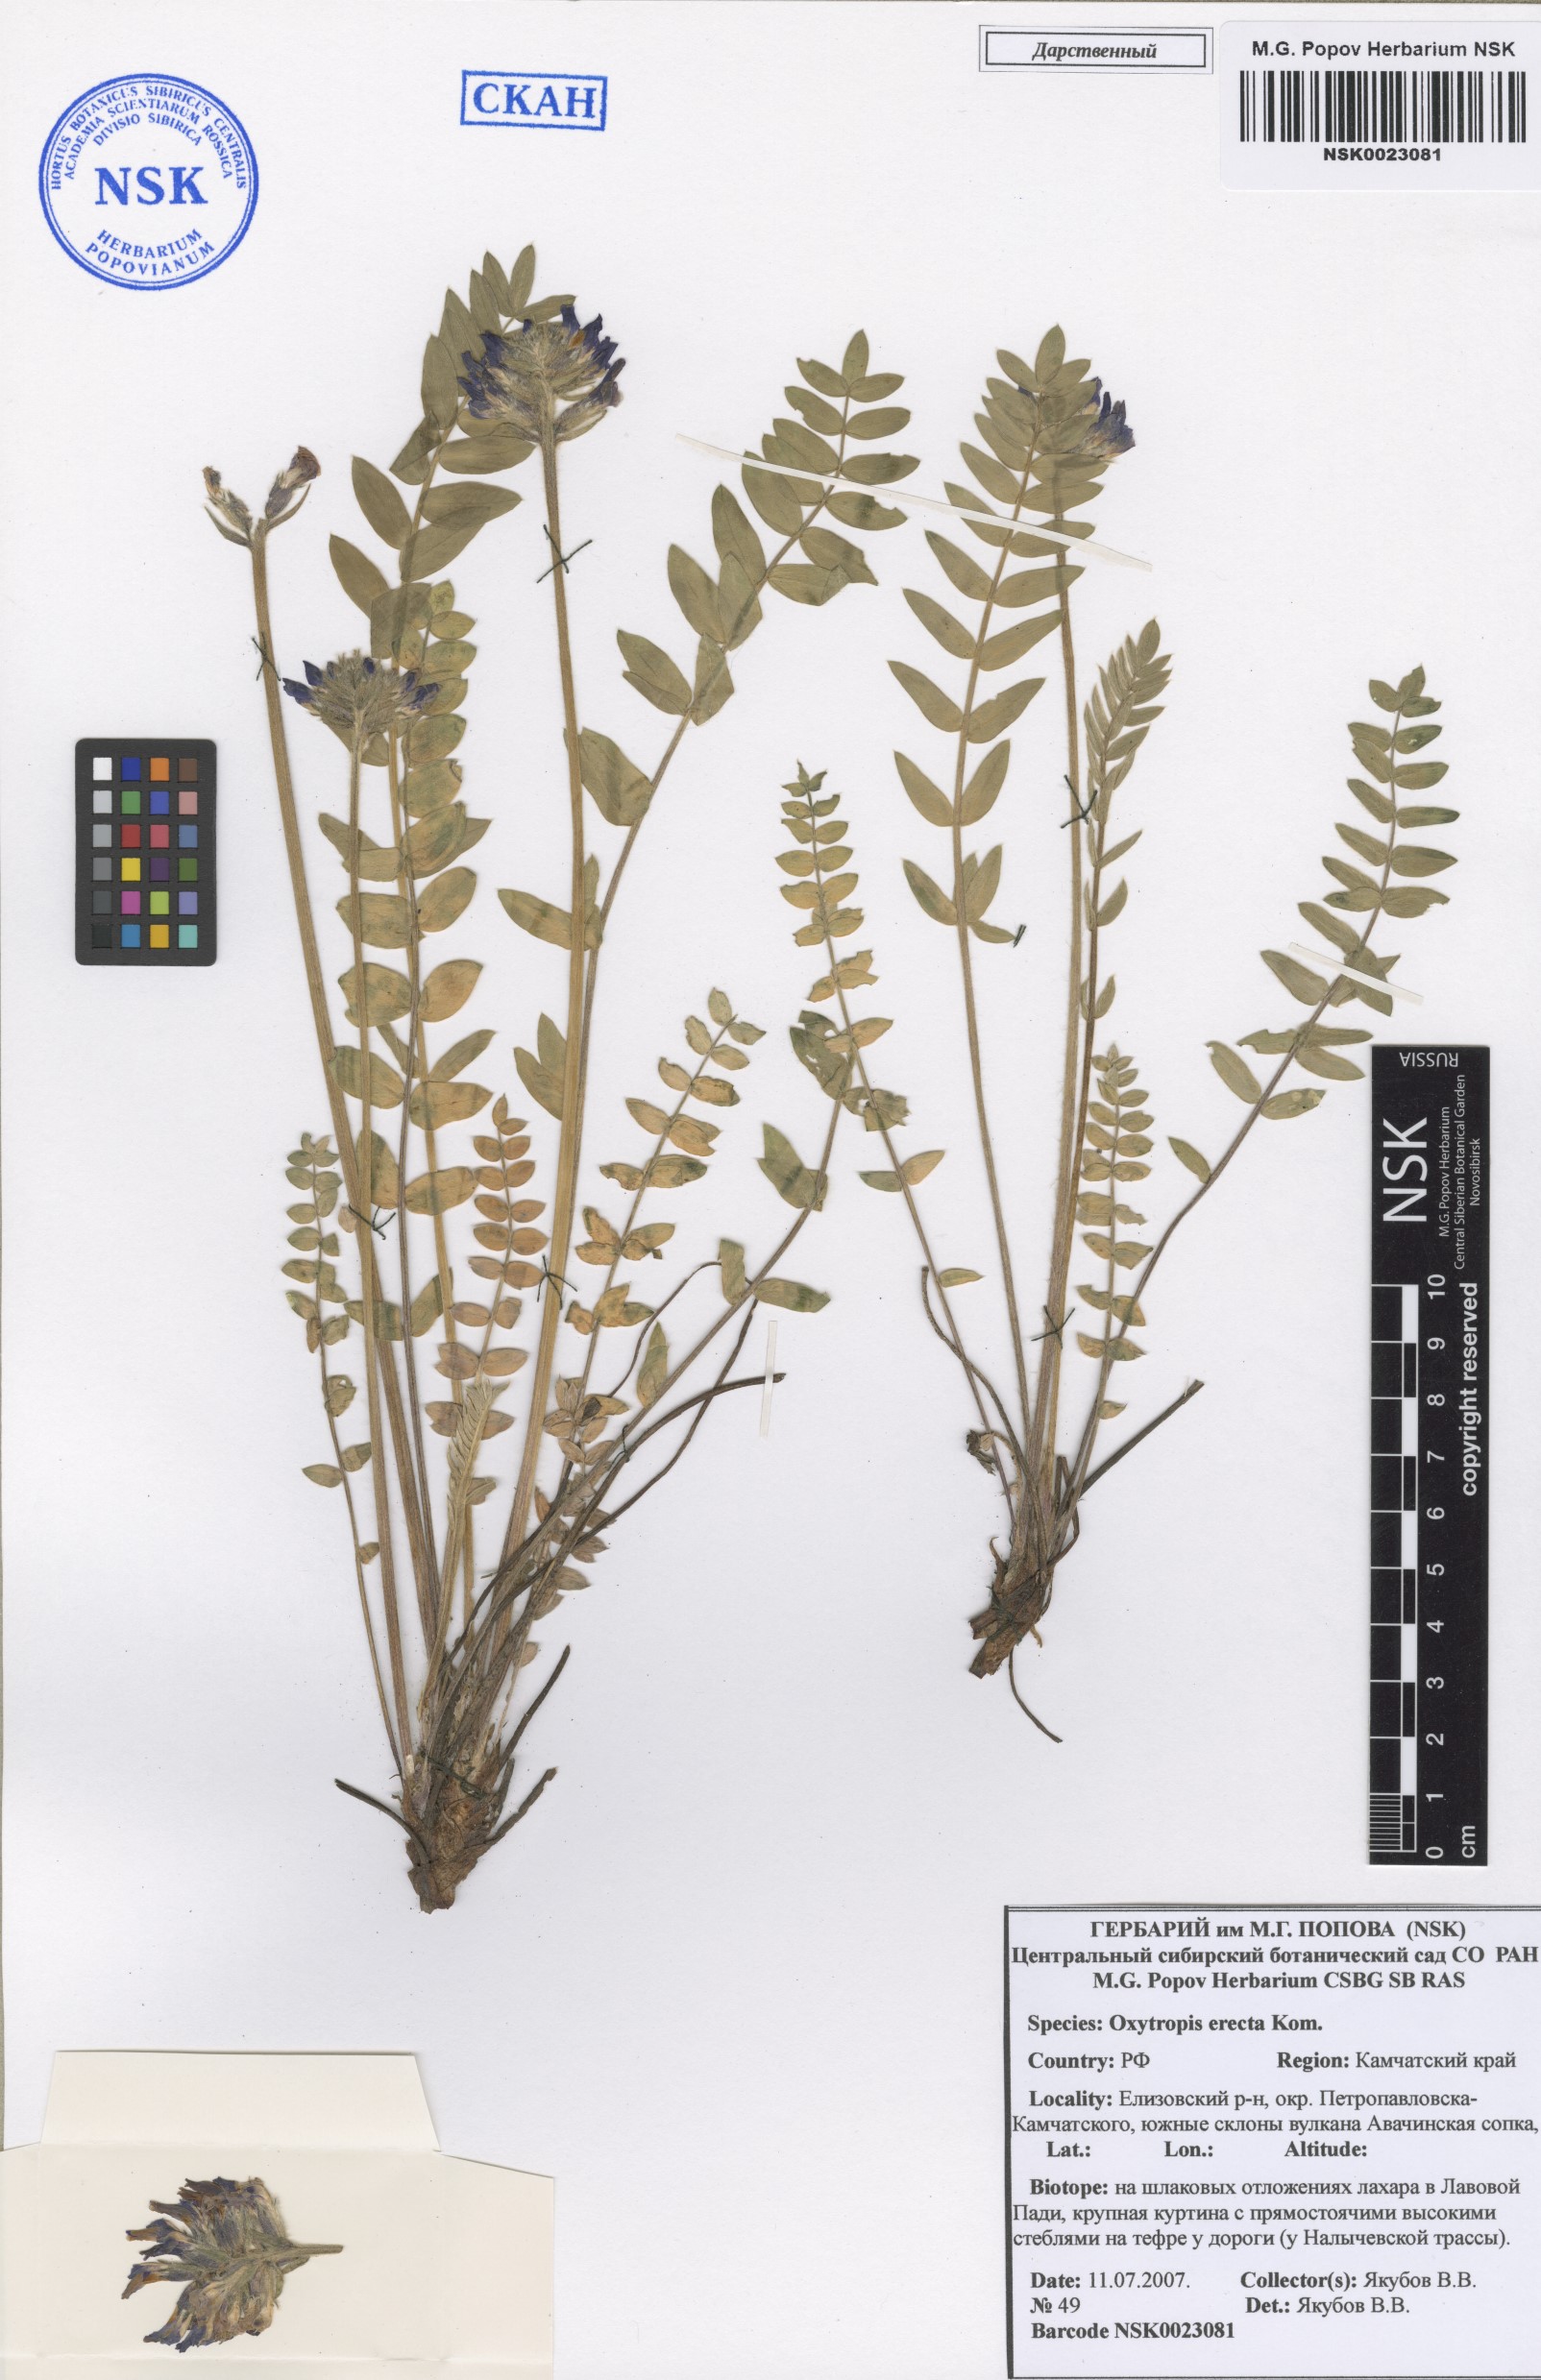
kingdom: Plantae
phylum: Tracheophyta
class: Magnoliopsida
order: Fabales
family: Fabaceae
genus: Oxytropis
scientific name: Oxytropis adamsiana
